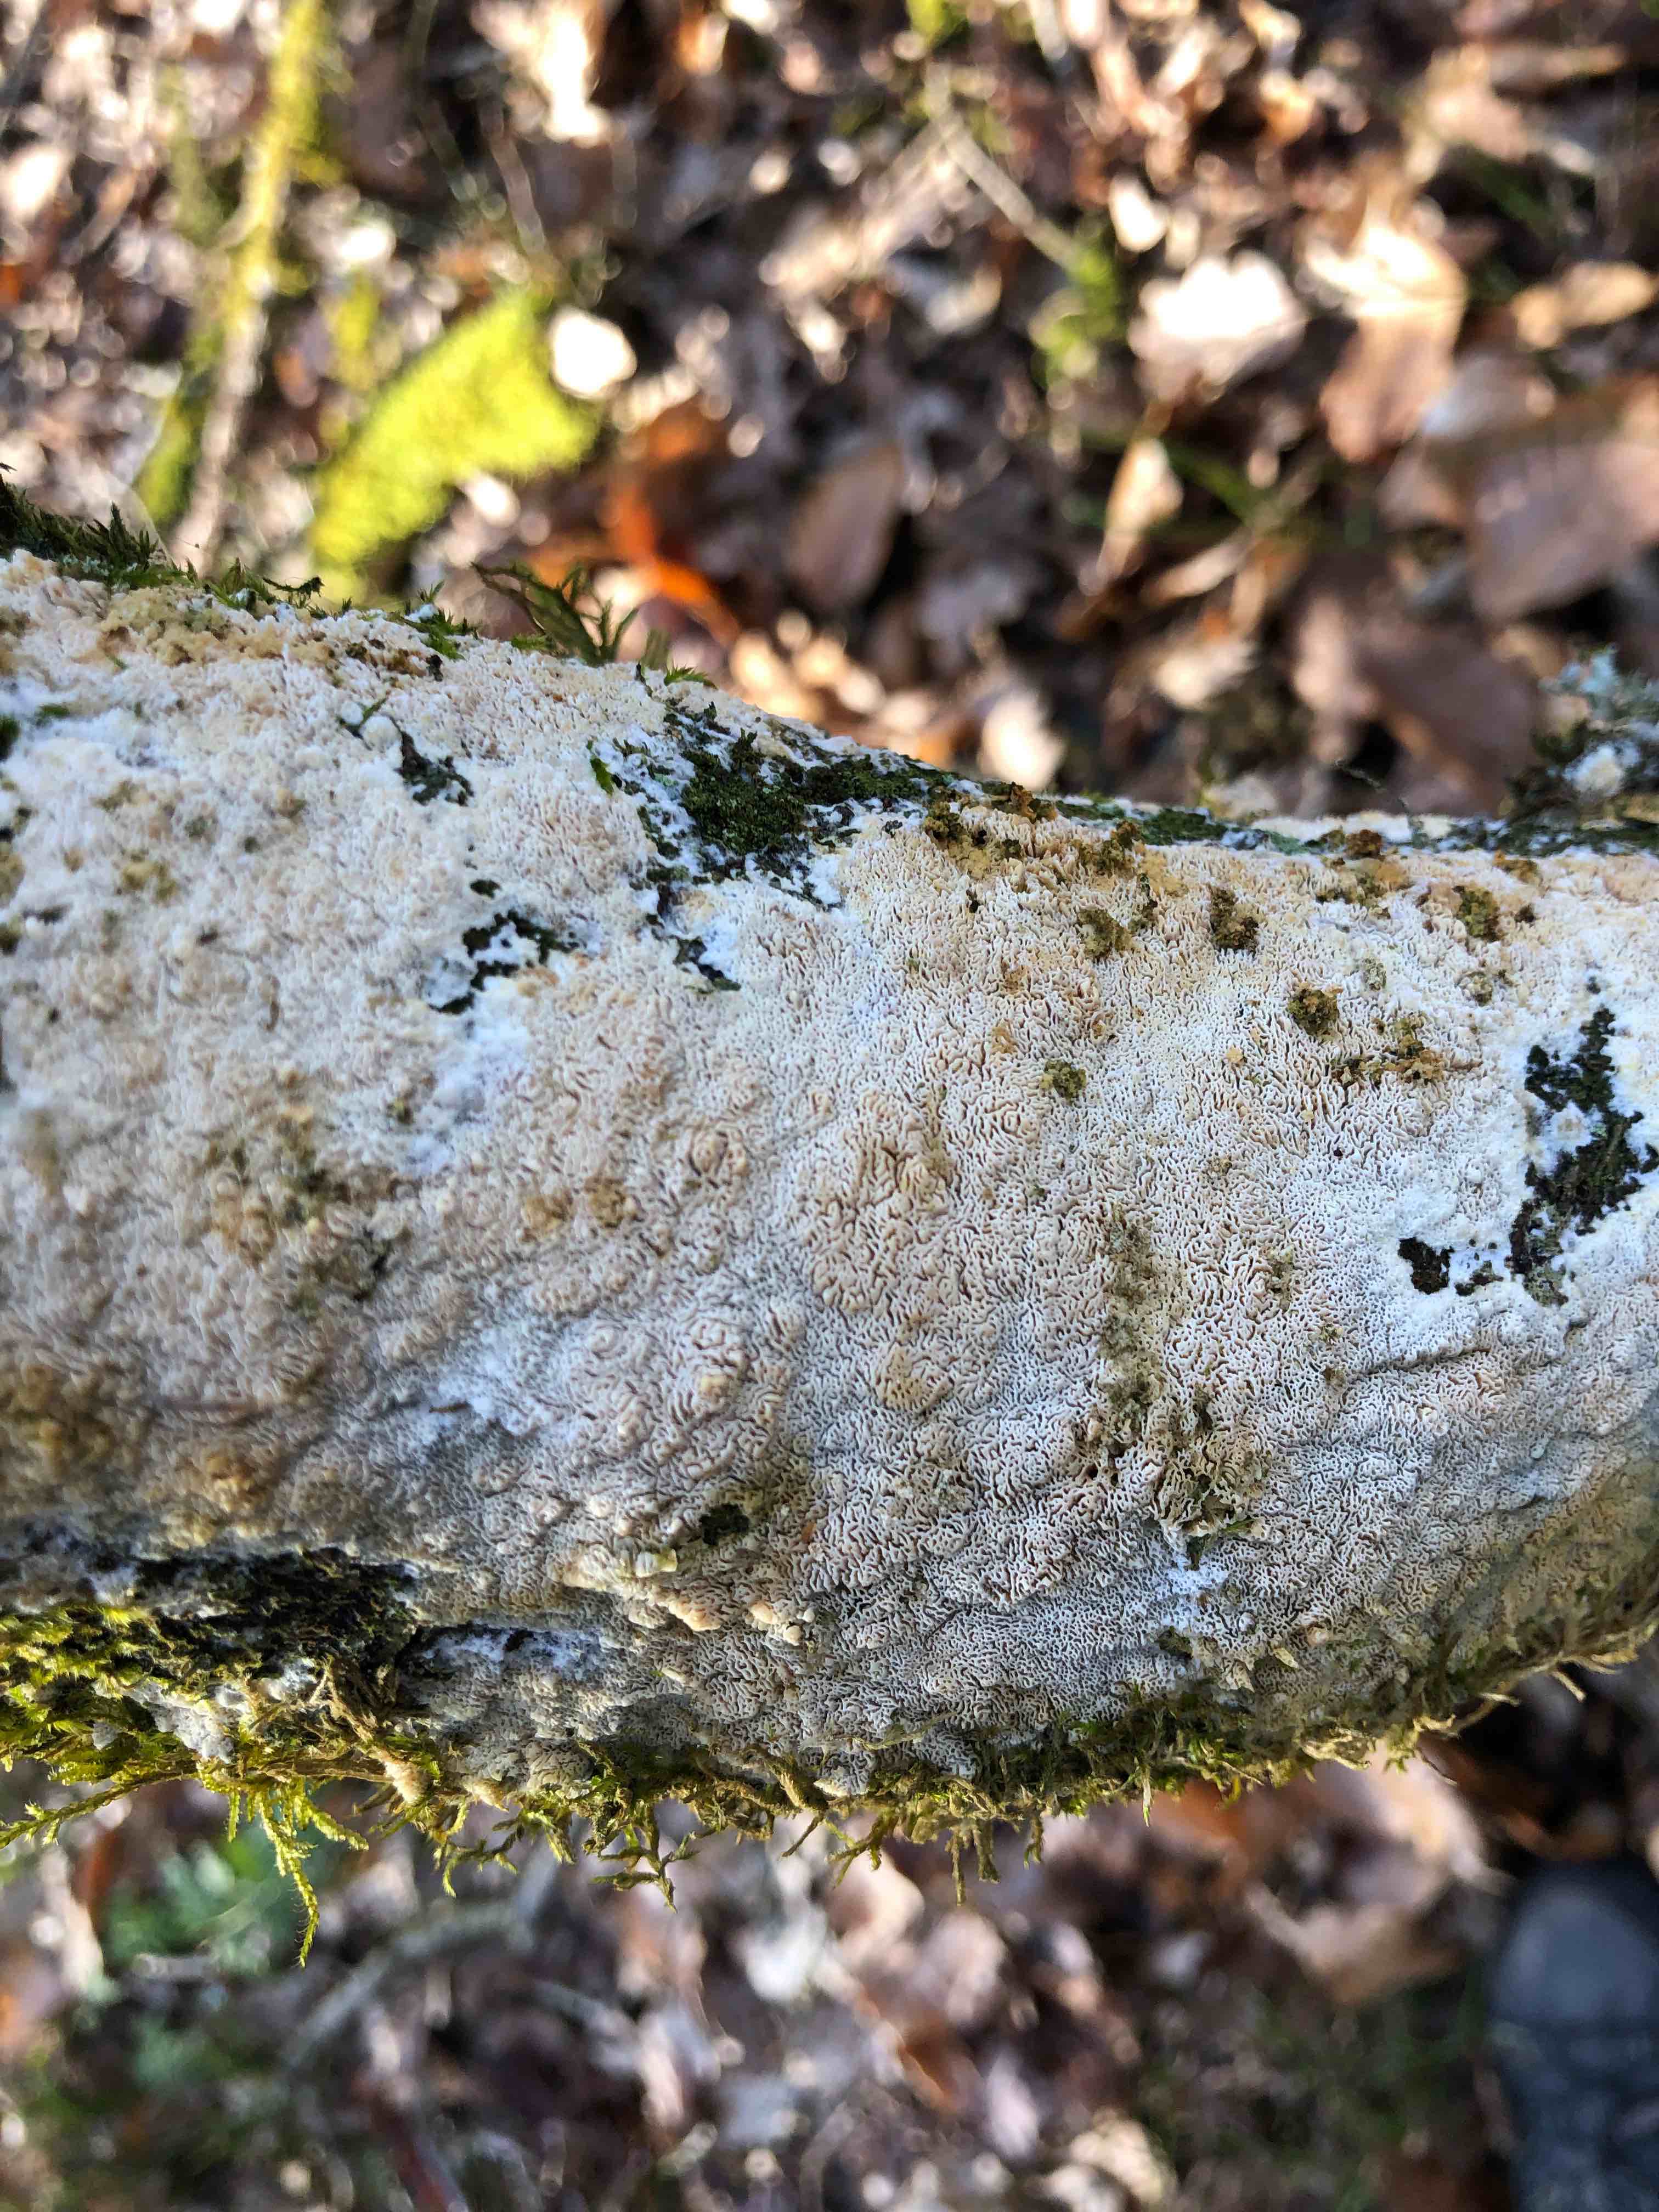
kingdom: Fungi
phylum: Basidiomycota
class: Agaricomycetes
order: Hymenochaetales
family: Schizoporaceae
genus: Xylodon
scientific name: Xylodon subtropicus
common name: labyrint-tandsvamp
